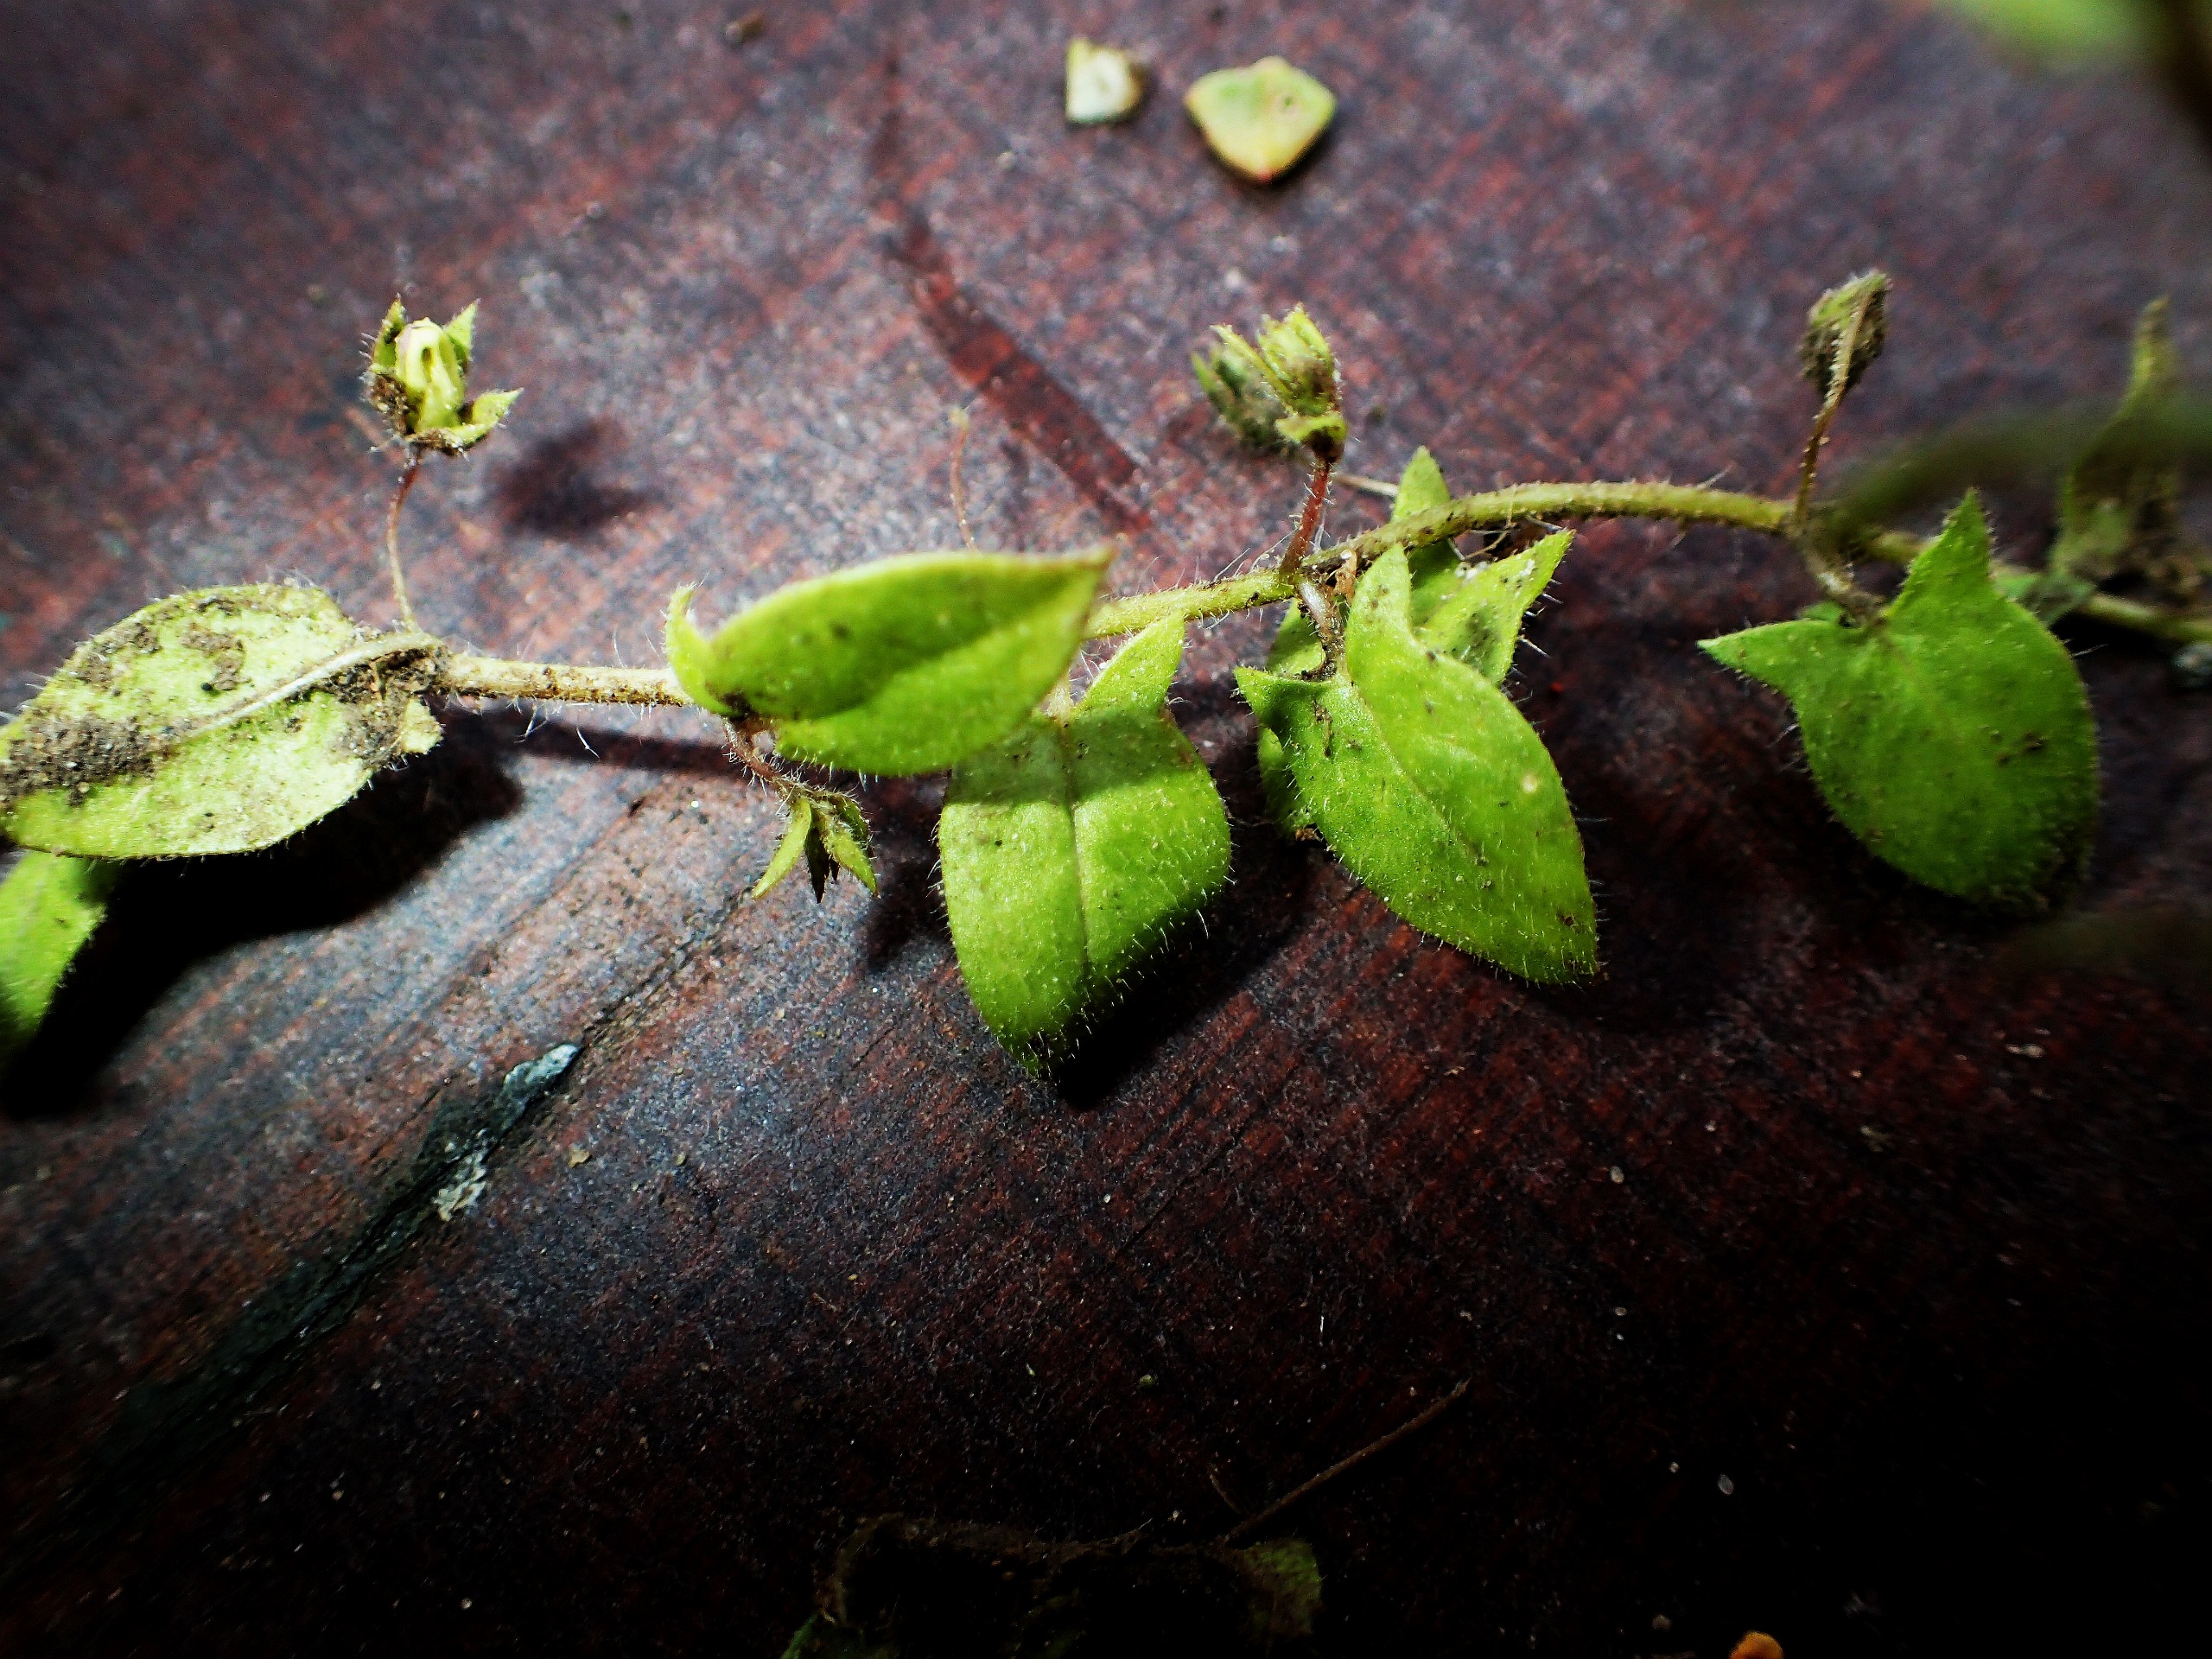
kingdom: Plantae
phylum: Tracheophyta
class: Magnoliopsida
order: Lamiales
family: Plantaginaceae
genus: Kickxia
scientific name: Kickxia elatine
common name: Spydbladet torskemund
